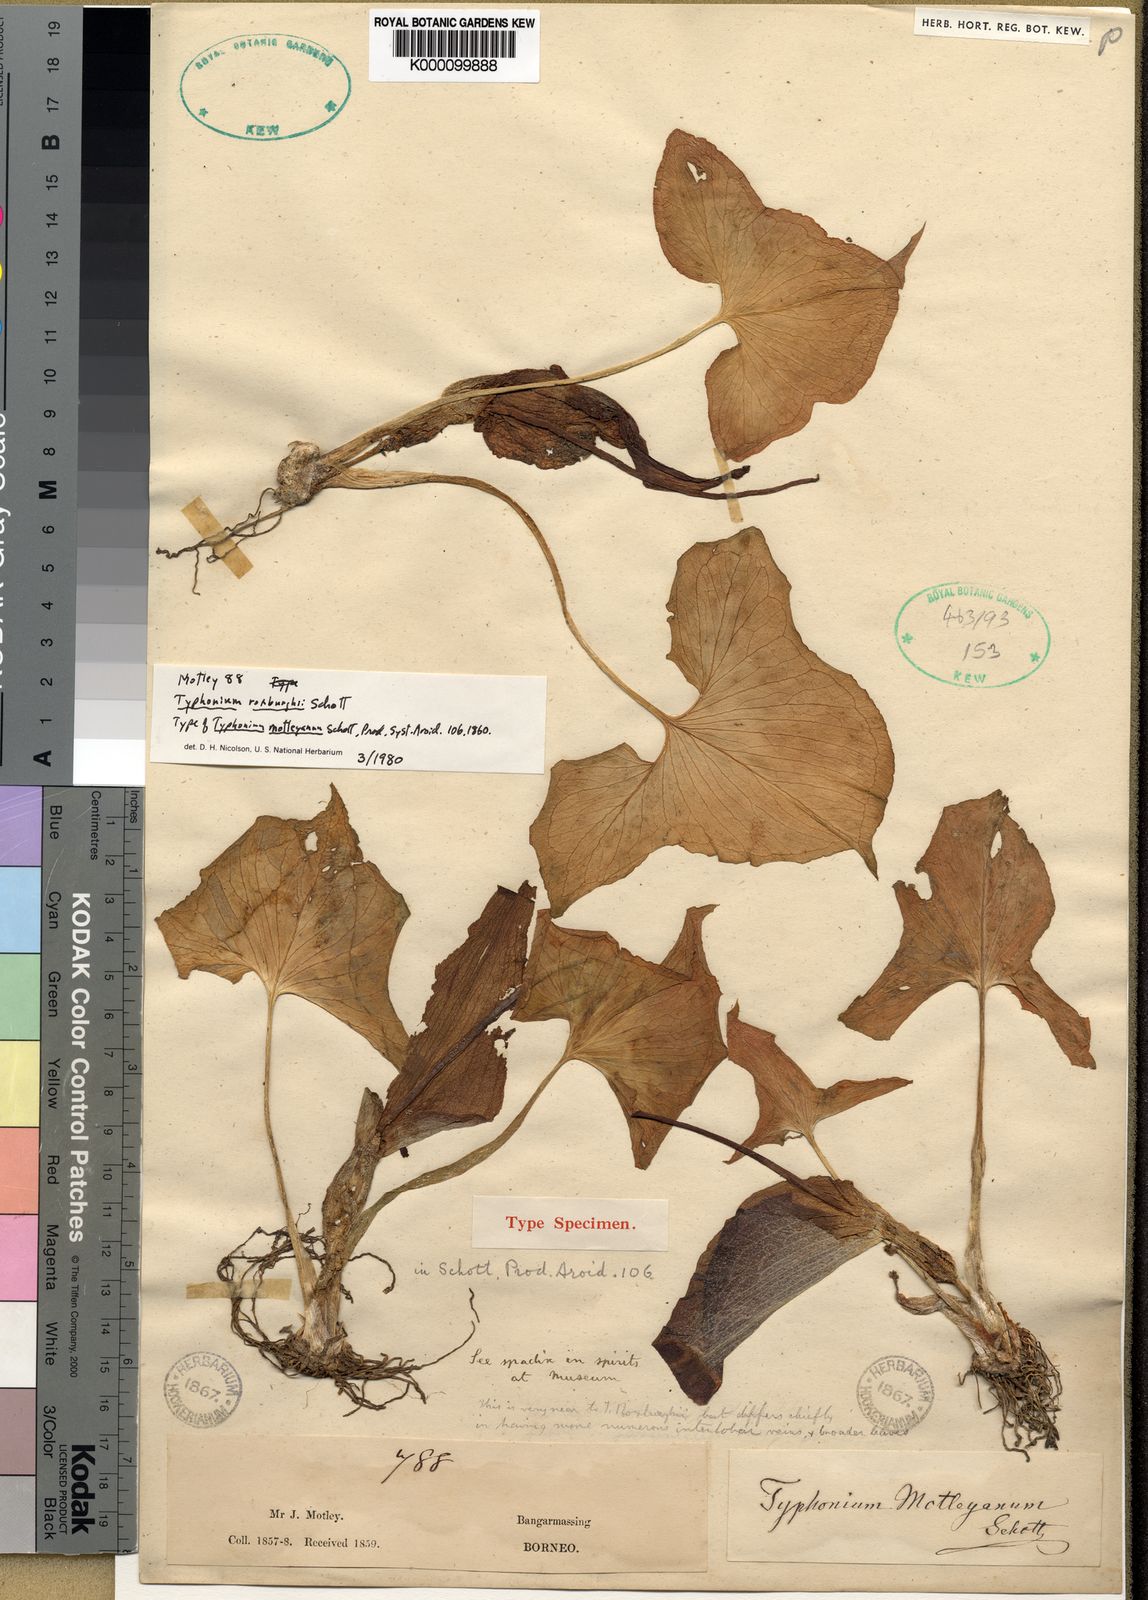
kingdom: Plantae
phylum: Tracheophyta
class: Liliopsida
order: Alismatales
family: Araceae
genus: Typhonium
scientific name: Typhonium roxburghii
